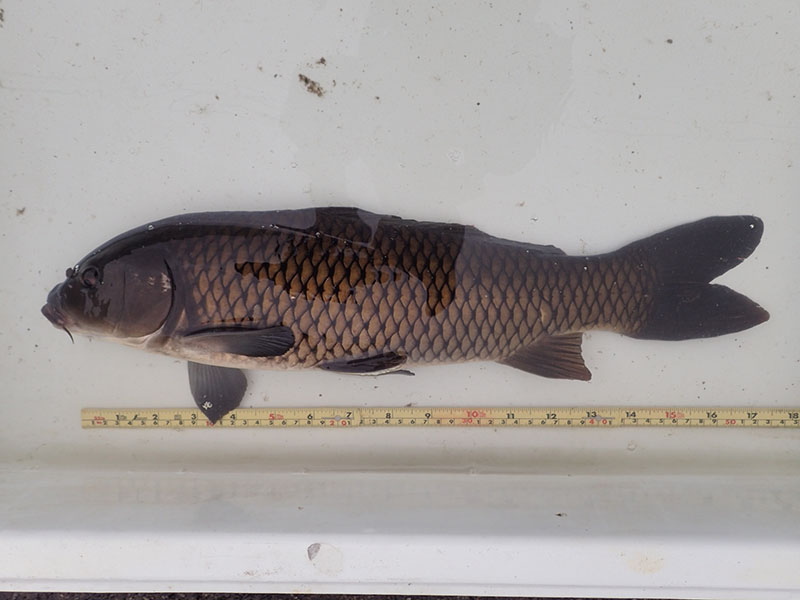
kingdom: Animalia
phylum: Chordata
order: Cypriniformes
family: Cyprinidae
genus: Cyprinus
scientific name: Cyprinus carpio
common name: コイ
